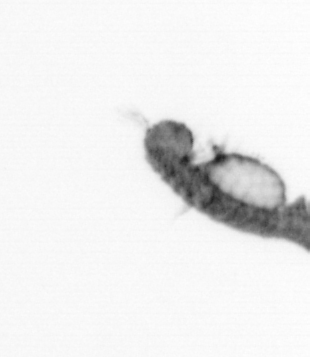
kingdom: Animalia
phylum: Annelida
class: Polychaeta
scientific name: Polychaeta
